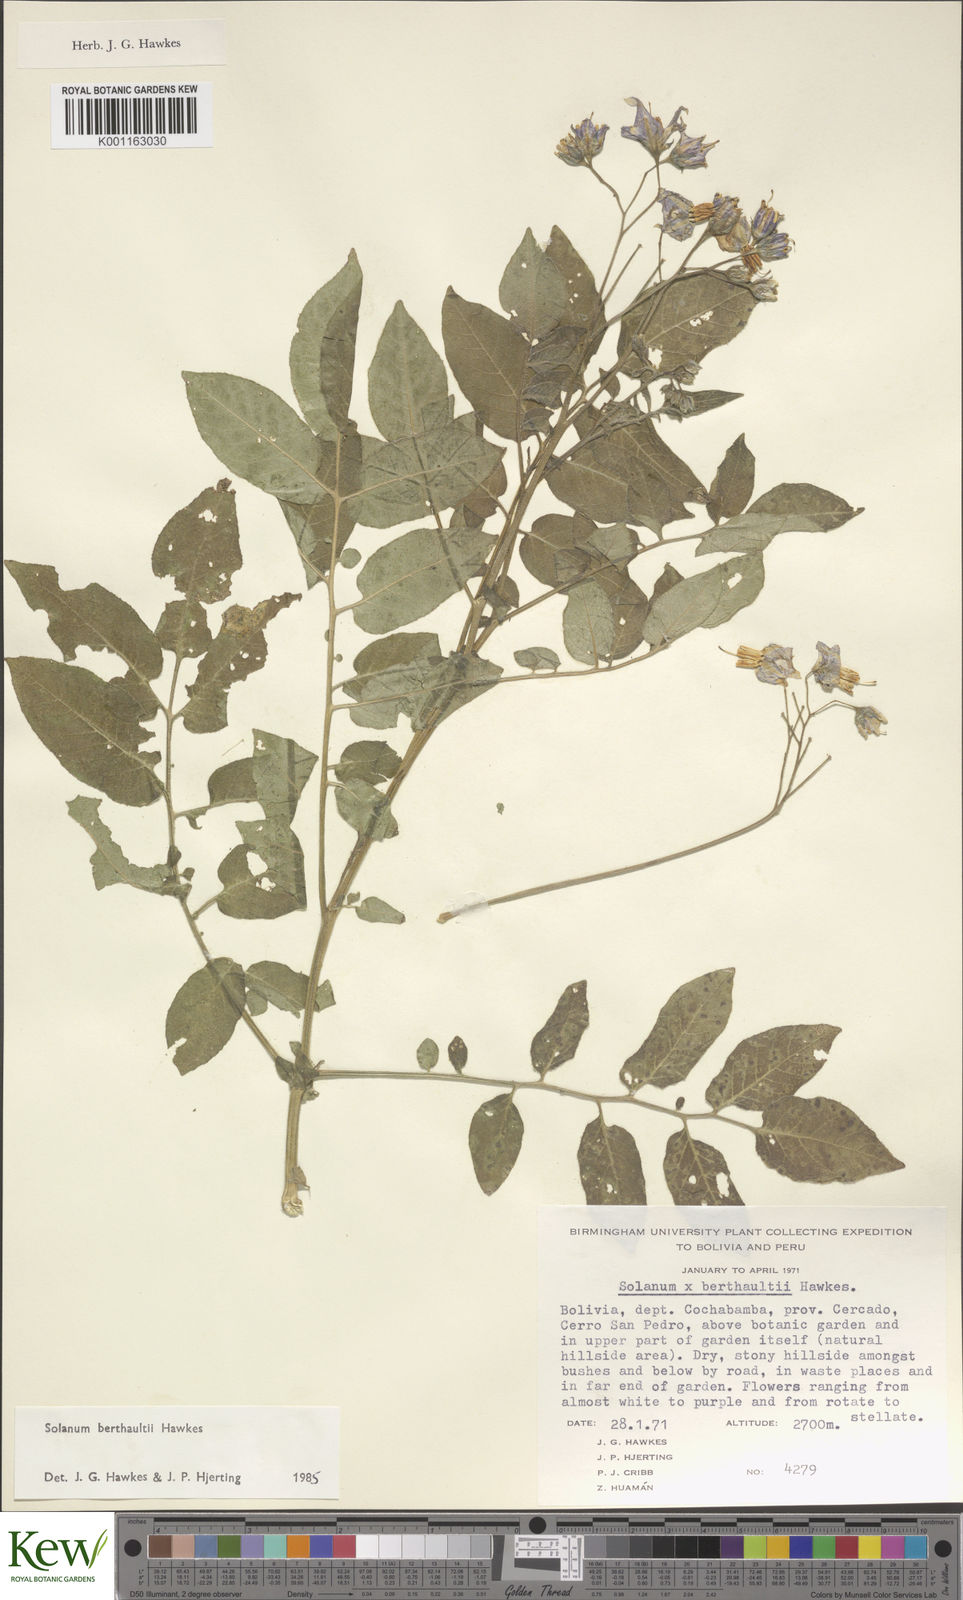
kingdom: Plantae
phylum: Tracheophyta
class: Magnoliopsida
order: Solanales
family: Solanaceae
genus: Solanum
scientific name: Solanum berthaultii
